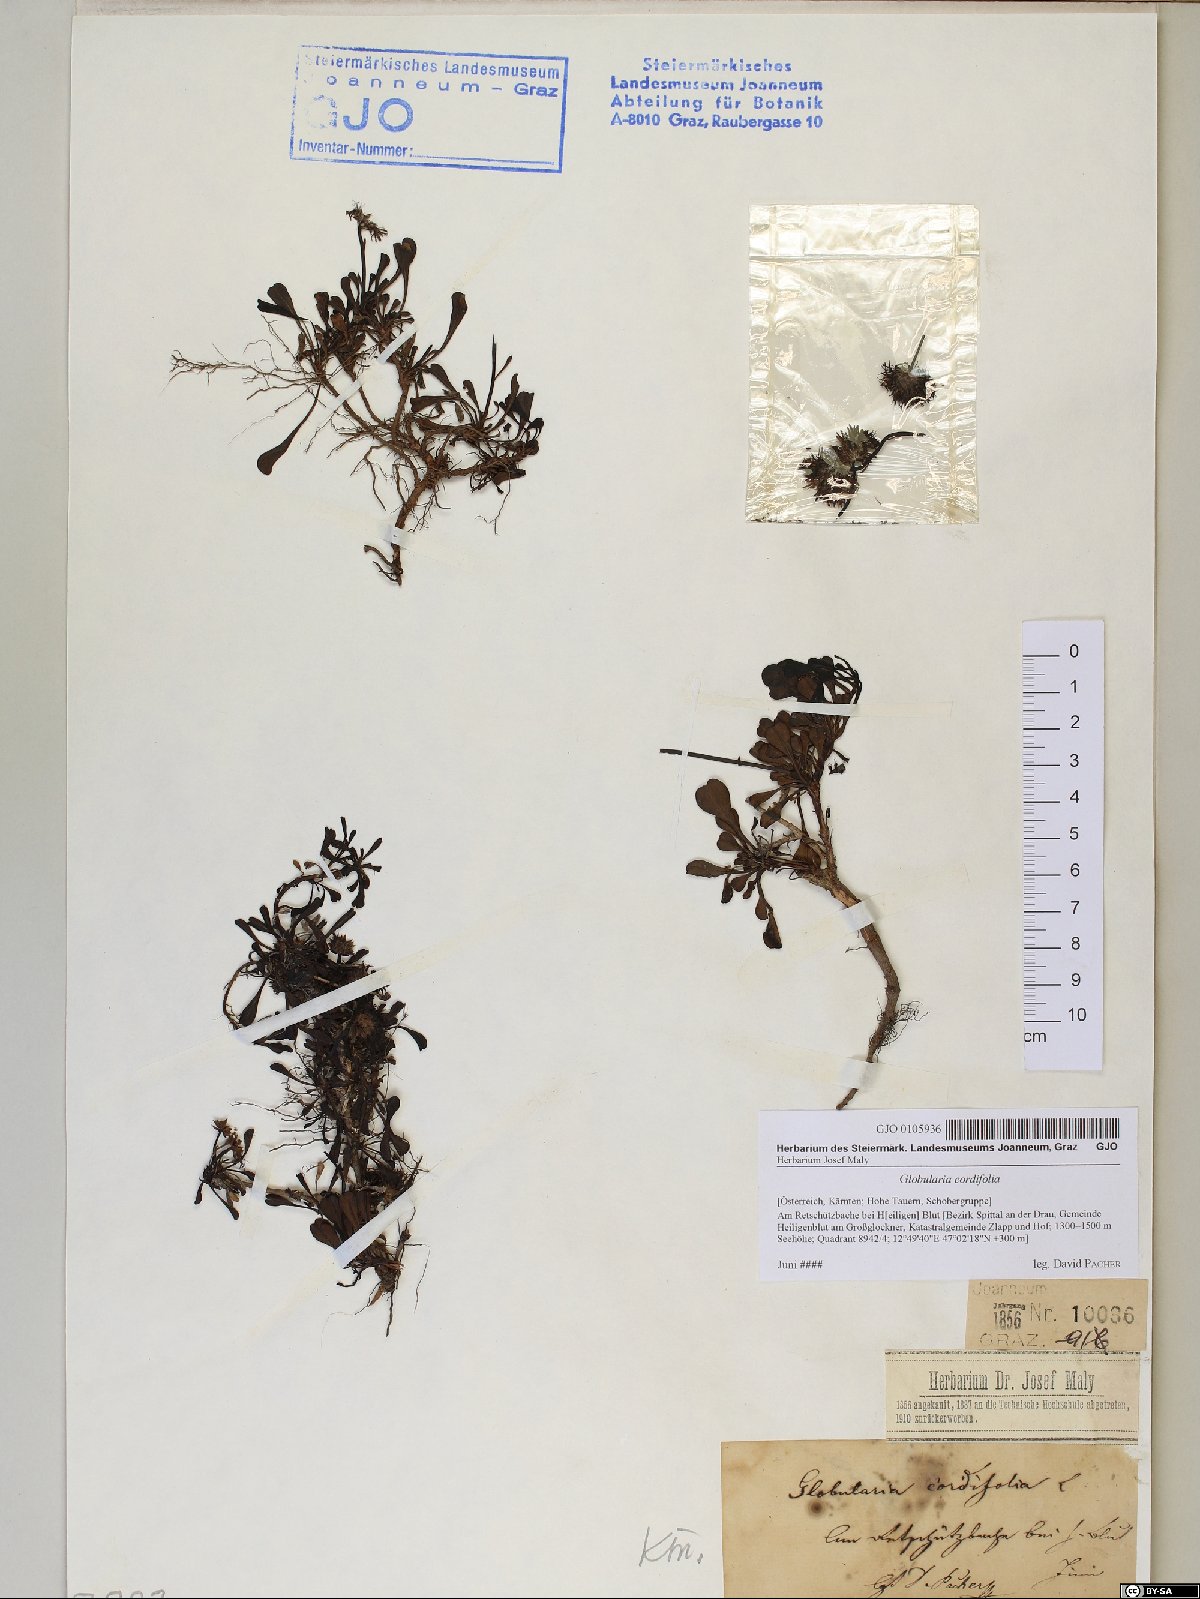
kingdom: Plantae
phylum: Tracheophyta
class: Magnoliopsida
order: Lamiales
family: Plantaginaceae
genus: Globularia
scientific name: Globularia cordifolia
